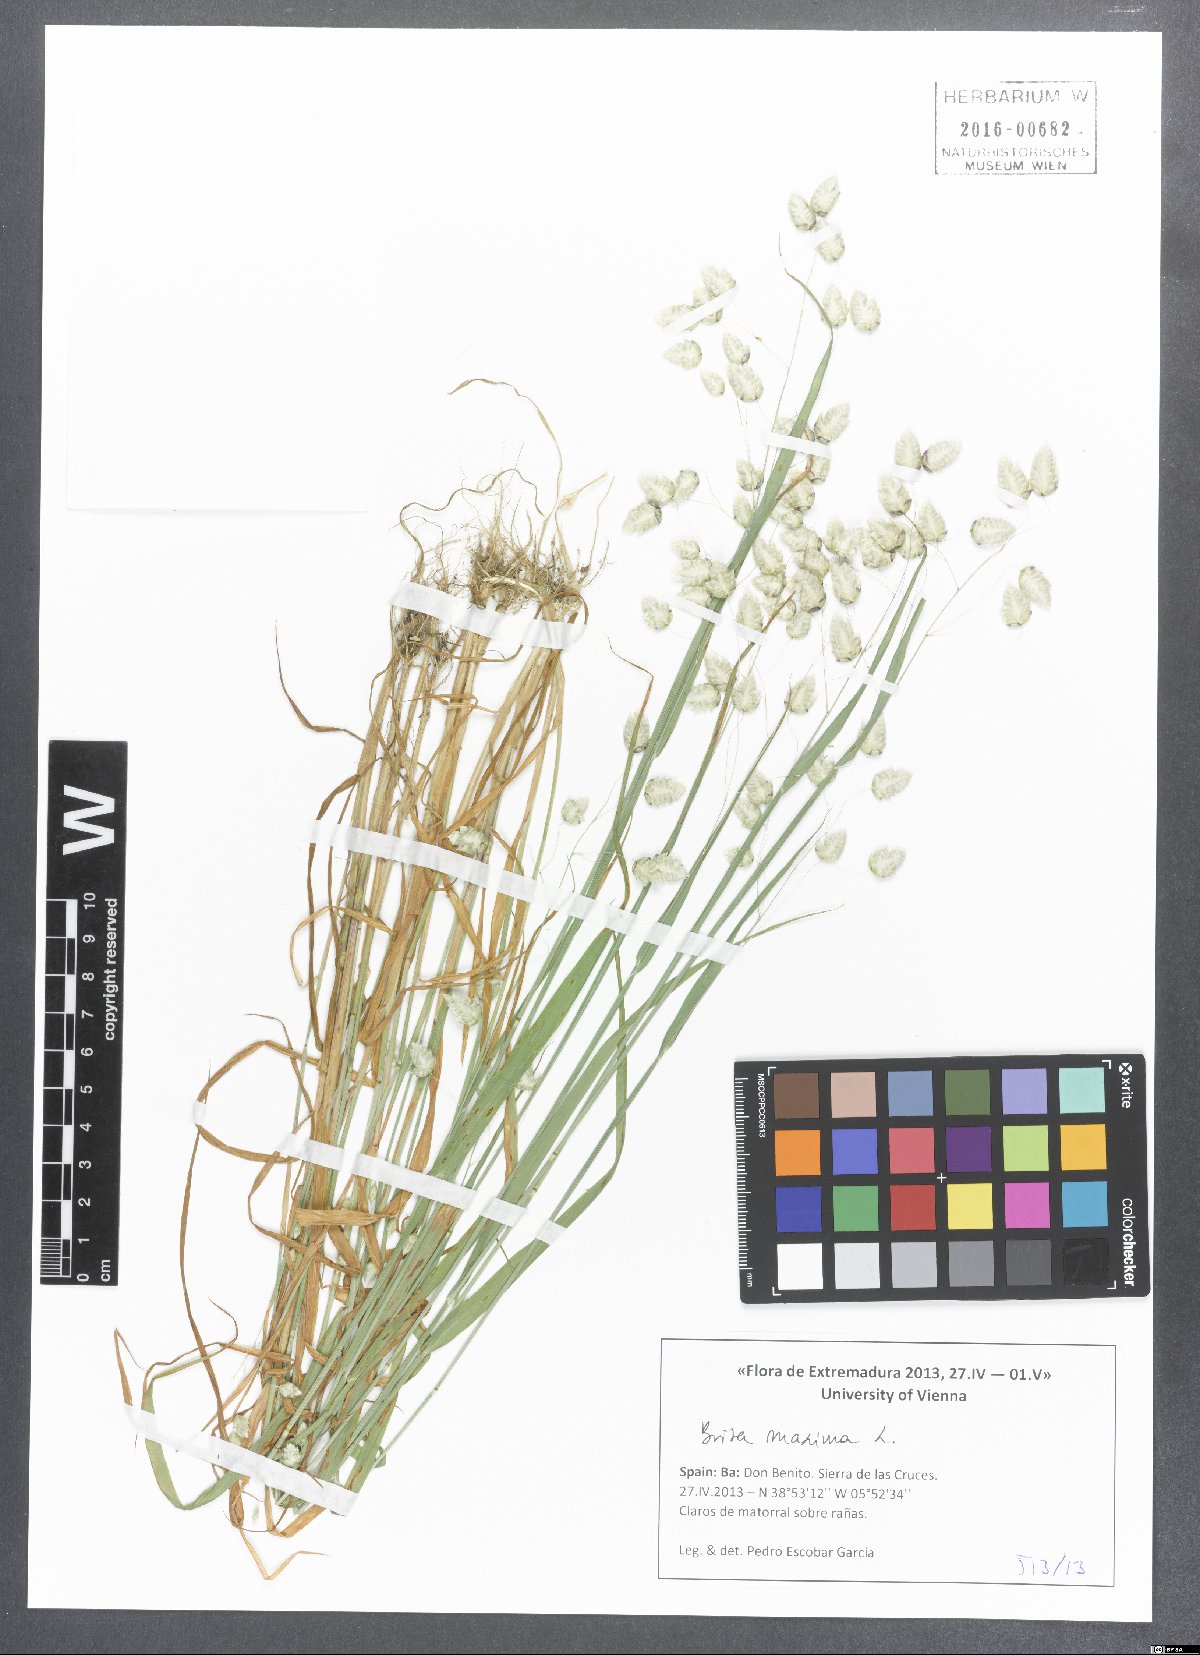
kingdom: Plantae
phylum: Tracheophyta
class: Liliopsida
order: Poales
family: Poaceae
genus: Briza
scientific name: Briza maxima
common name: Big quakinggrass
